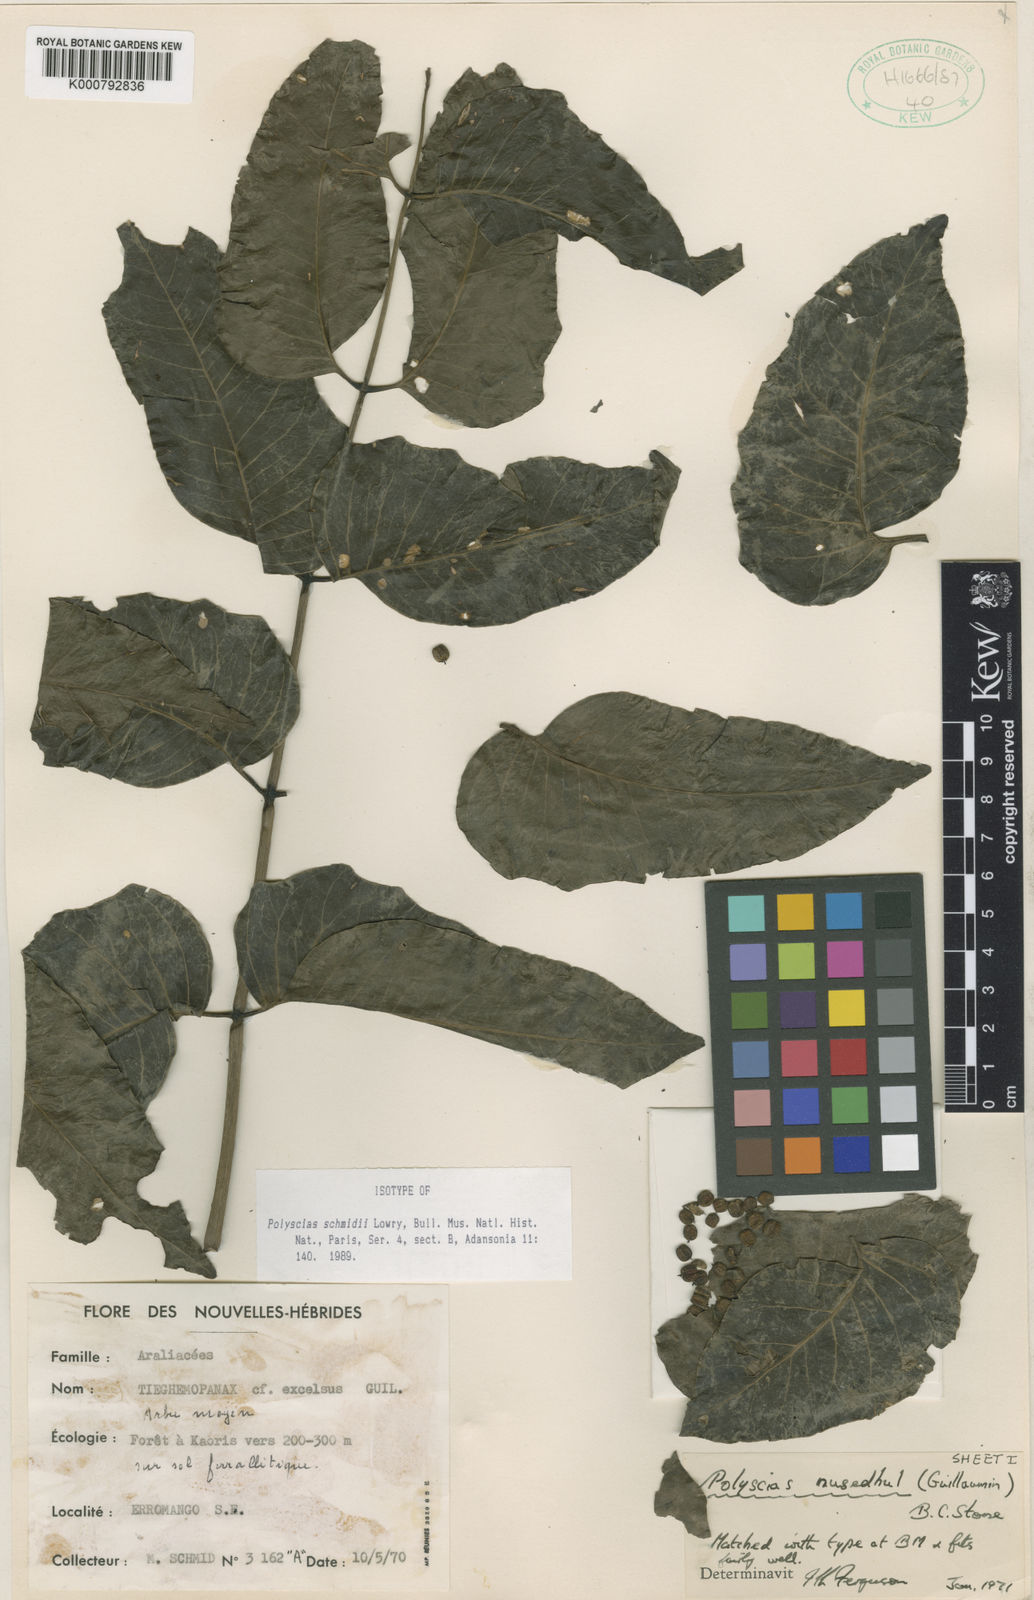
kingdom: Plantae
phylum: Tracheophyta
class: Magnoliopsida
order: Apiales
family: Araliaceae
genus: Polyscias
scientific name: Polyscias schmidii
